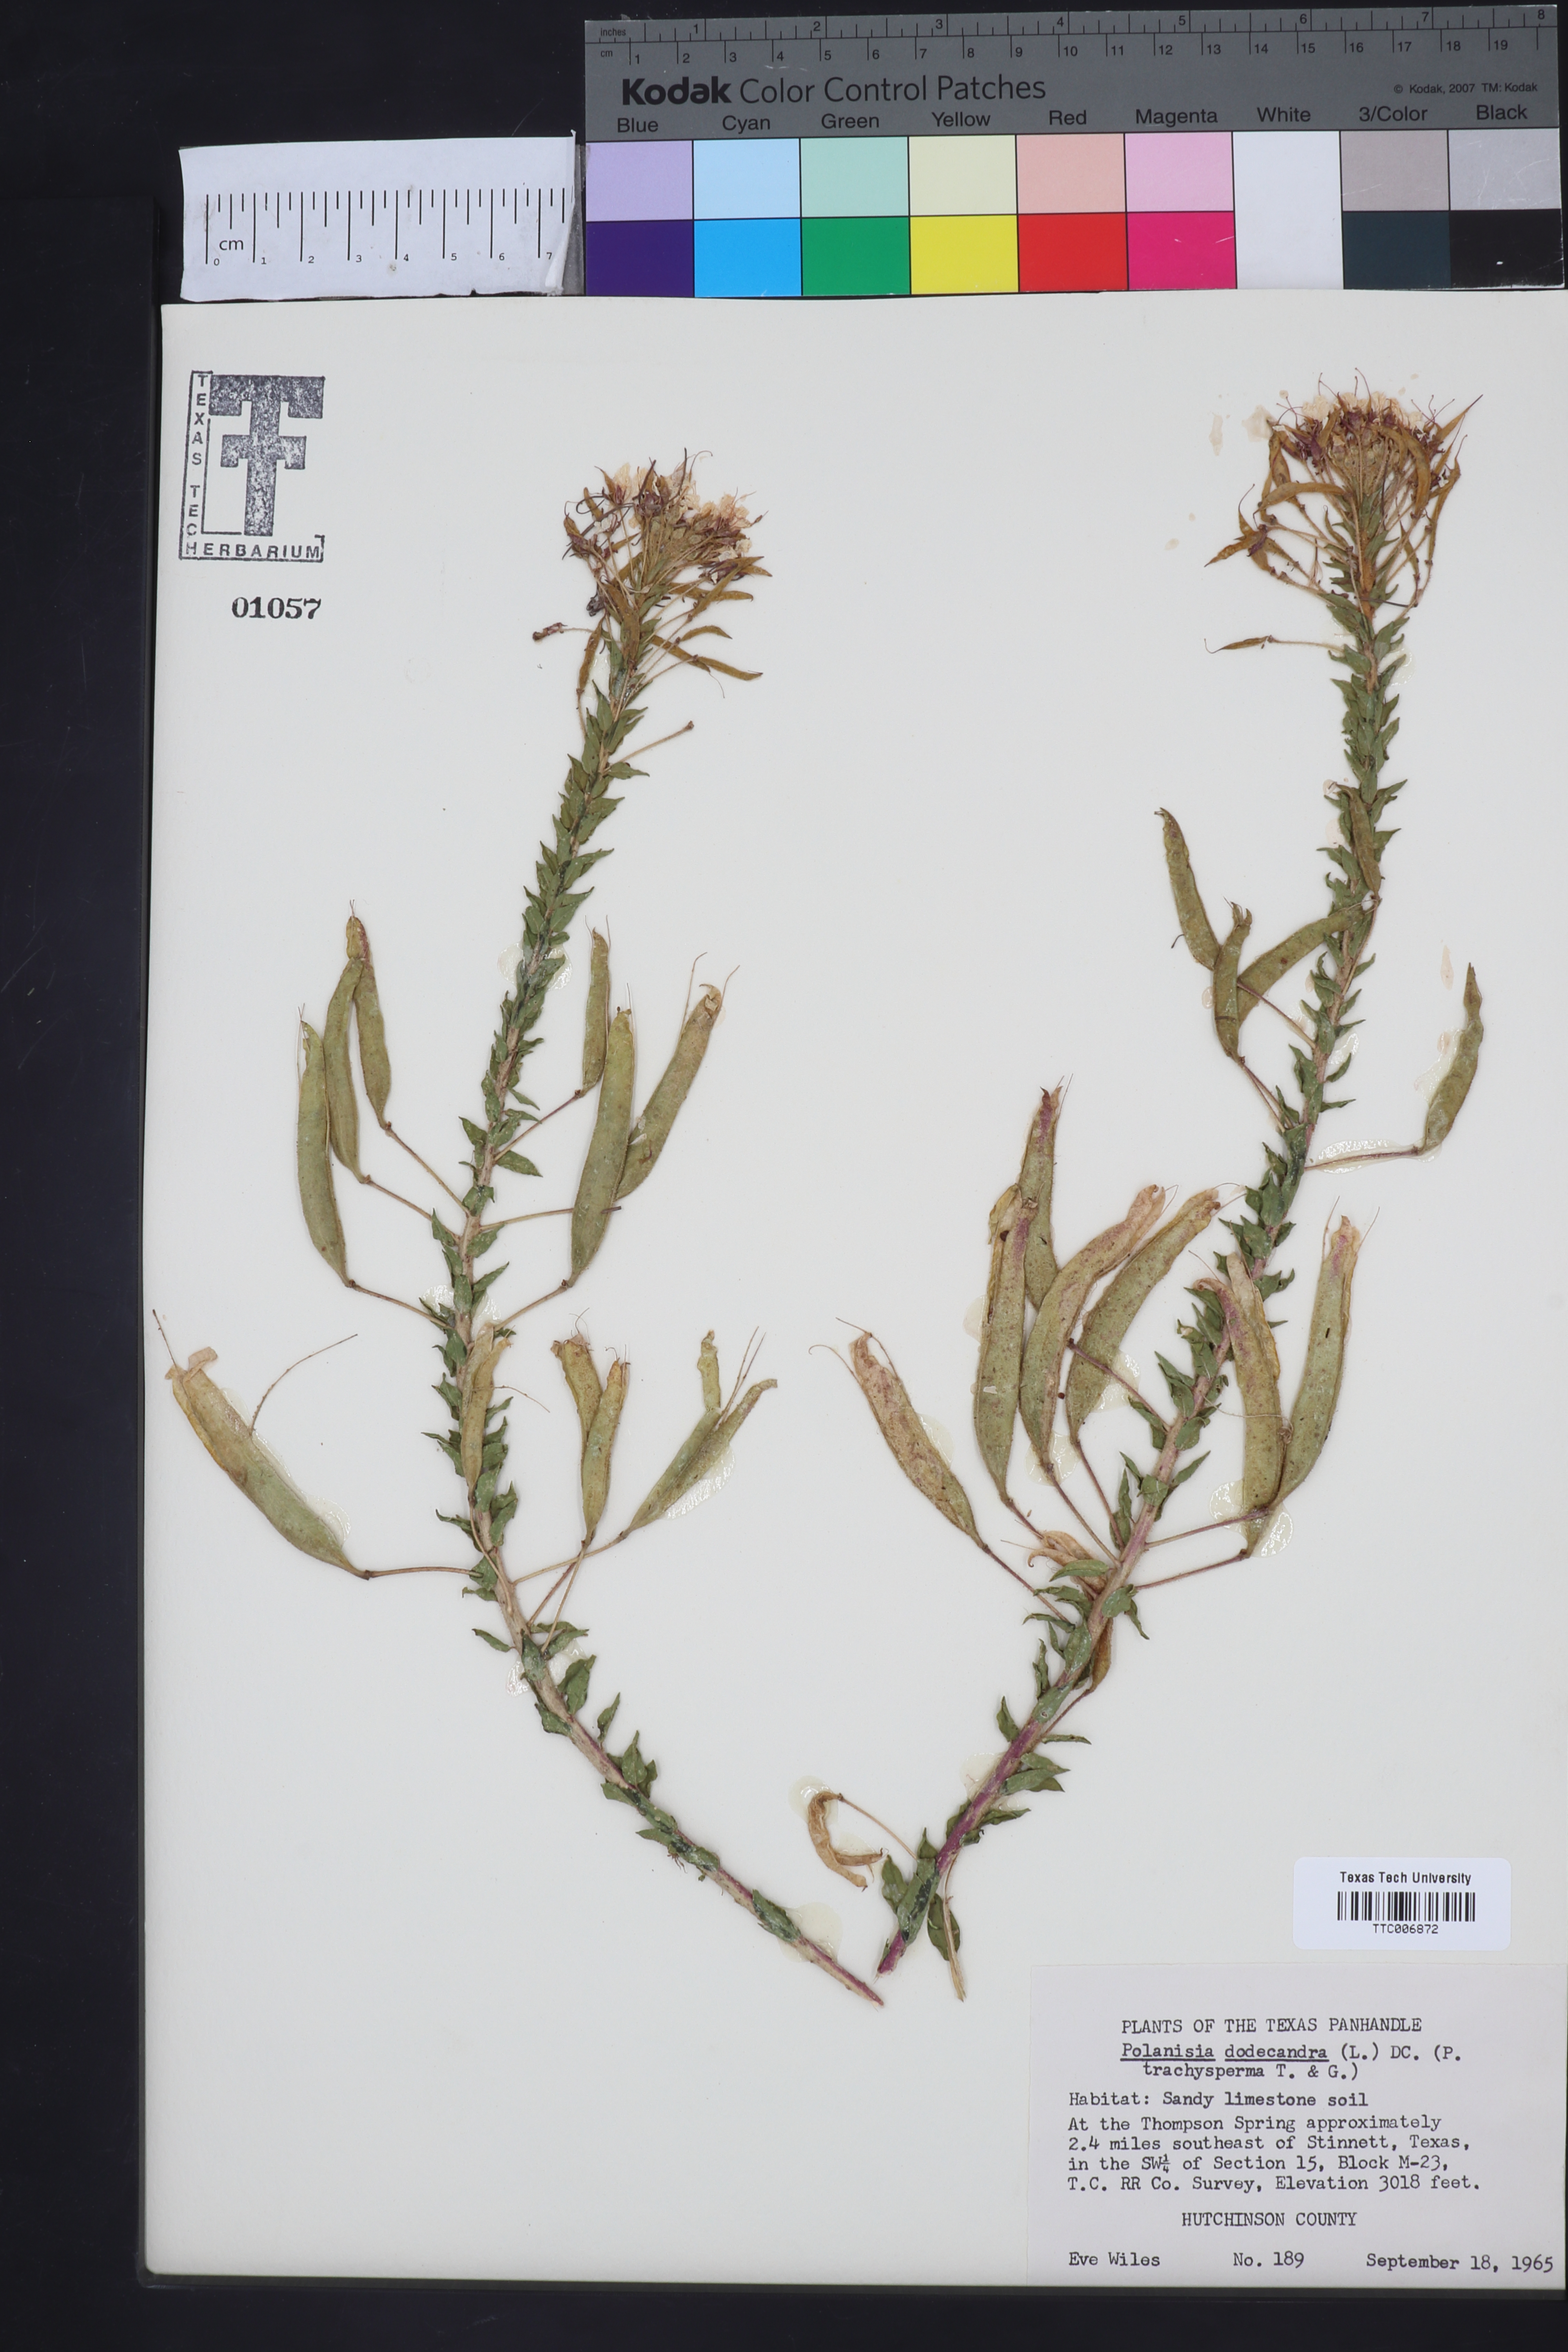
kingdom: Plantae
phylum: Tracheophyta
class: Magnoliopsida
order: Brassicales
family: Cleomaceae
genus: Polanisia
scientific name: Polanisia trachysperma
